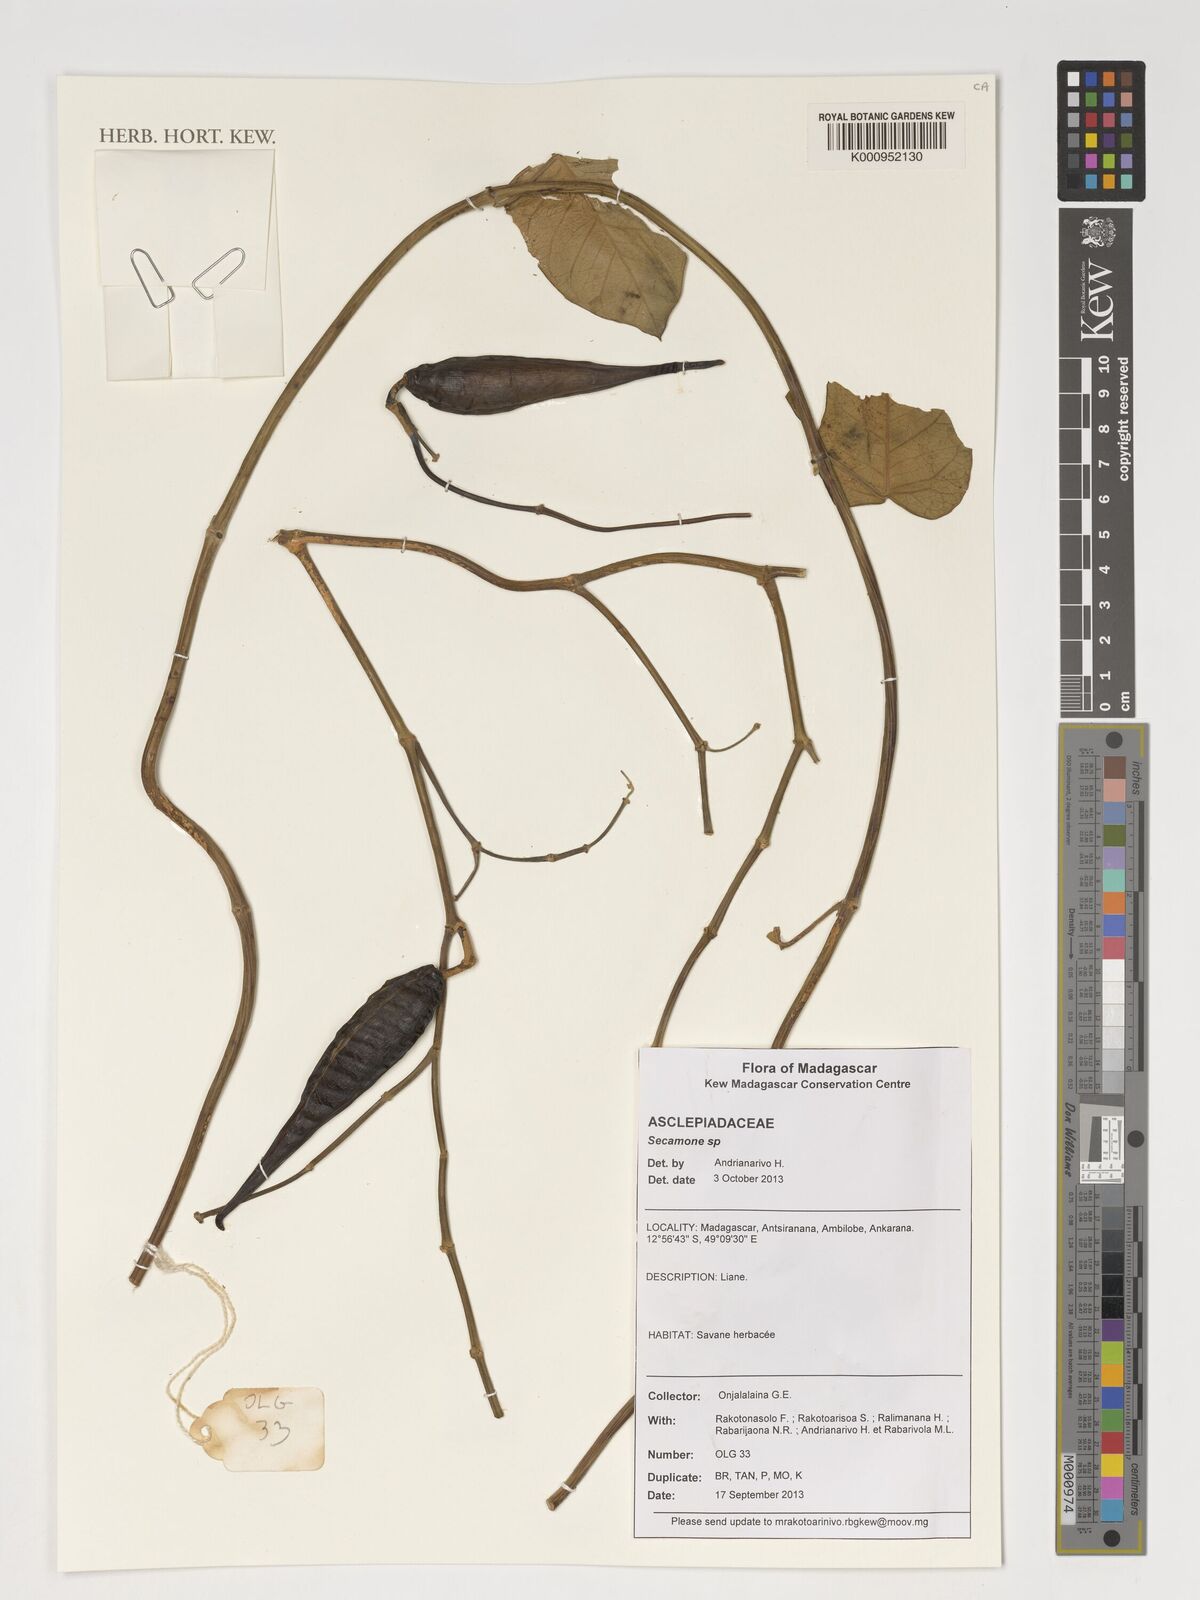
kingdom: Plantae
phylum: Tracheophyta
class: Magnoliopsida
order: Gentianales
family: Apocynaceae
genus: Secamone
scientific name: Secamone
